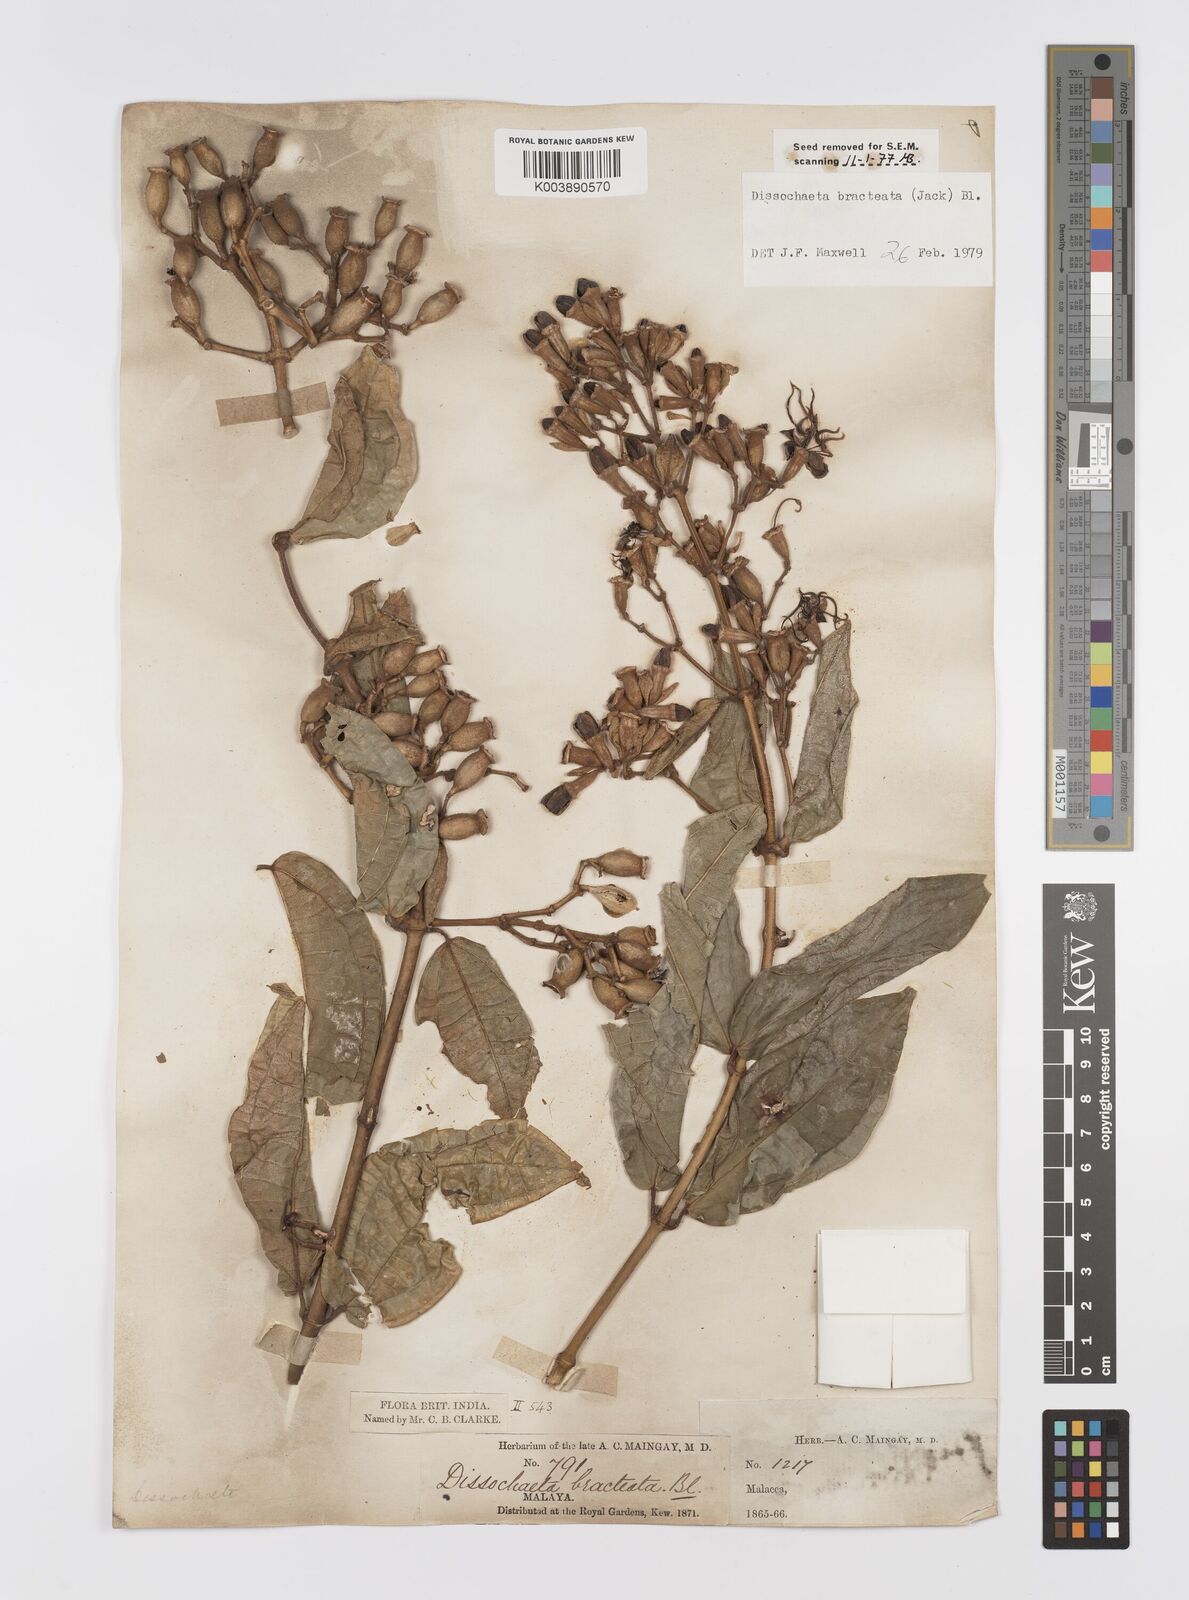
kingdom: Plantae
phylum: Tracheophyta
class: Magnoliopsida
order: Myrtales
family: Melastomataceae
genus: Dissochaeta
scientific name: Dissochaeta bracteata
